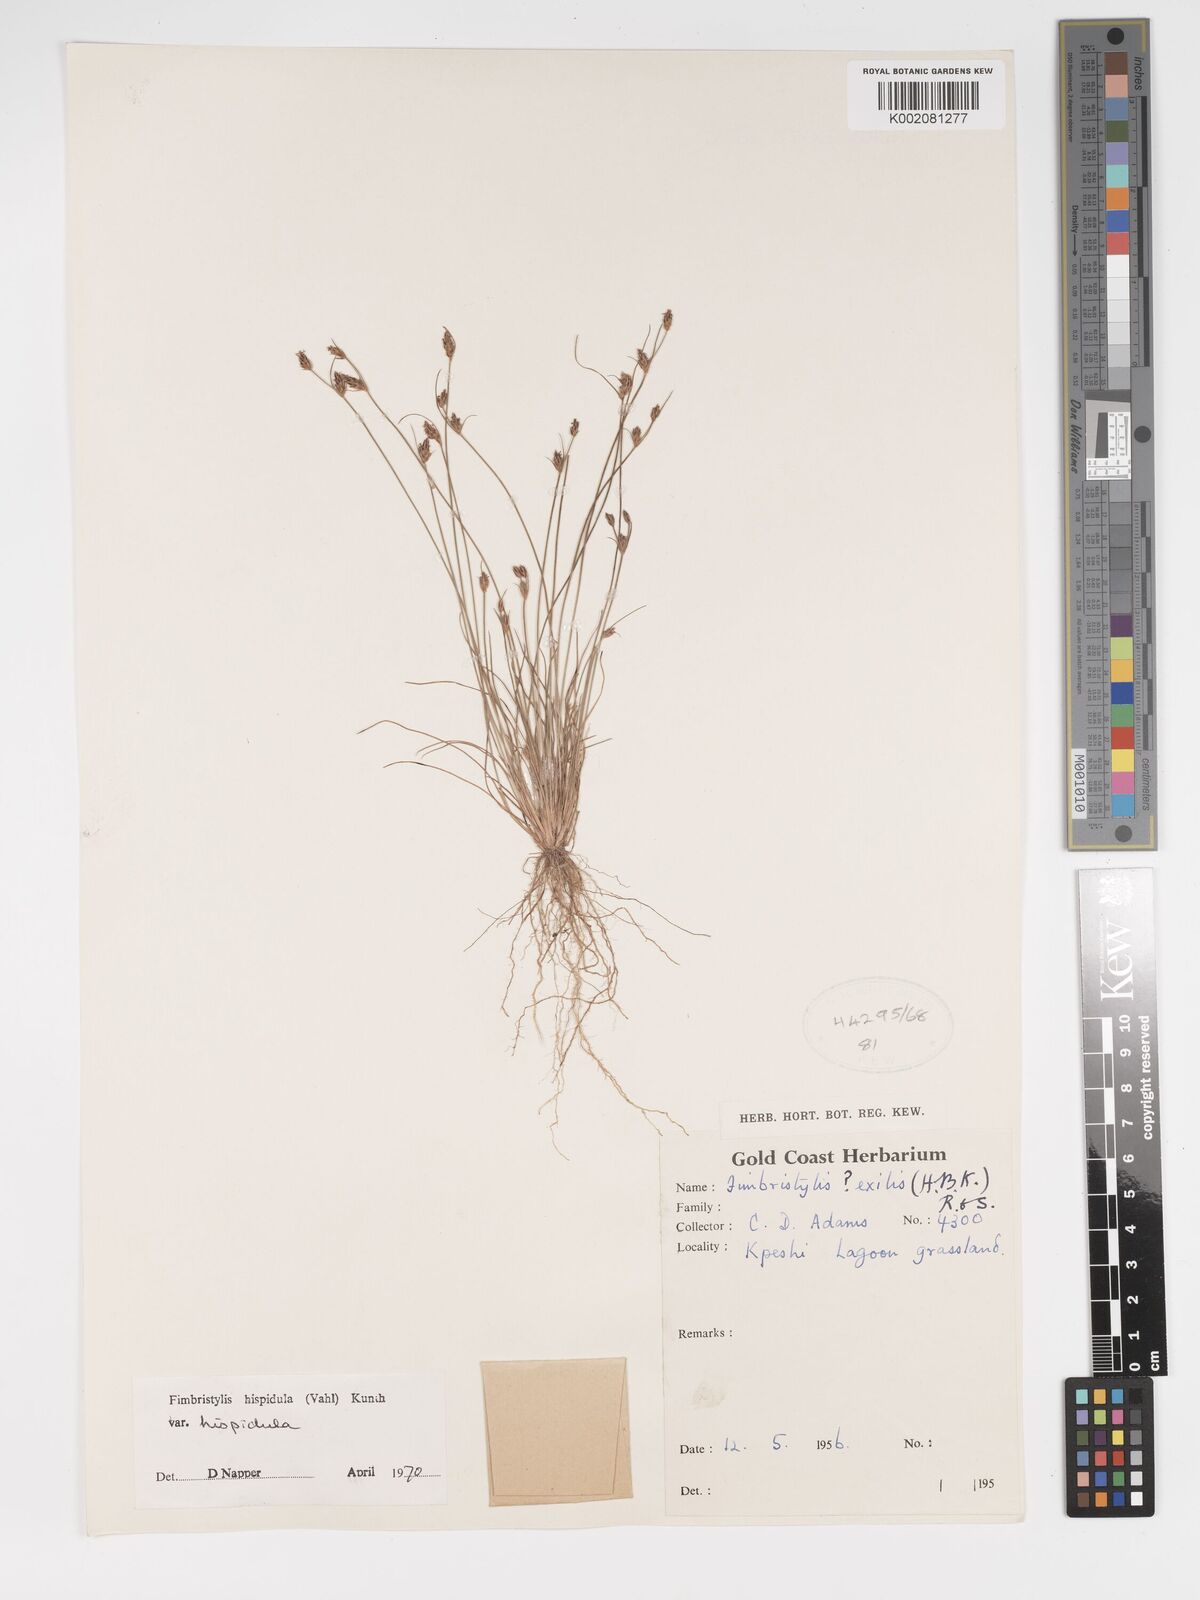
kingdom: Plantae
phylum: Tracheophyta
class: Liliopsida
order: Poales
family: Cyperaceae
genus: Bulbostylis
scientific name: Bulbostylis hispidula
